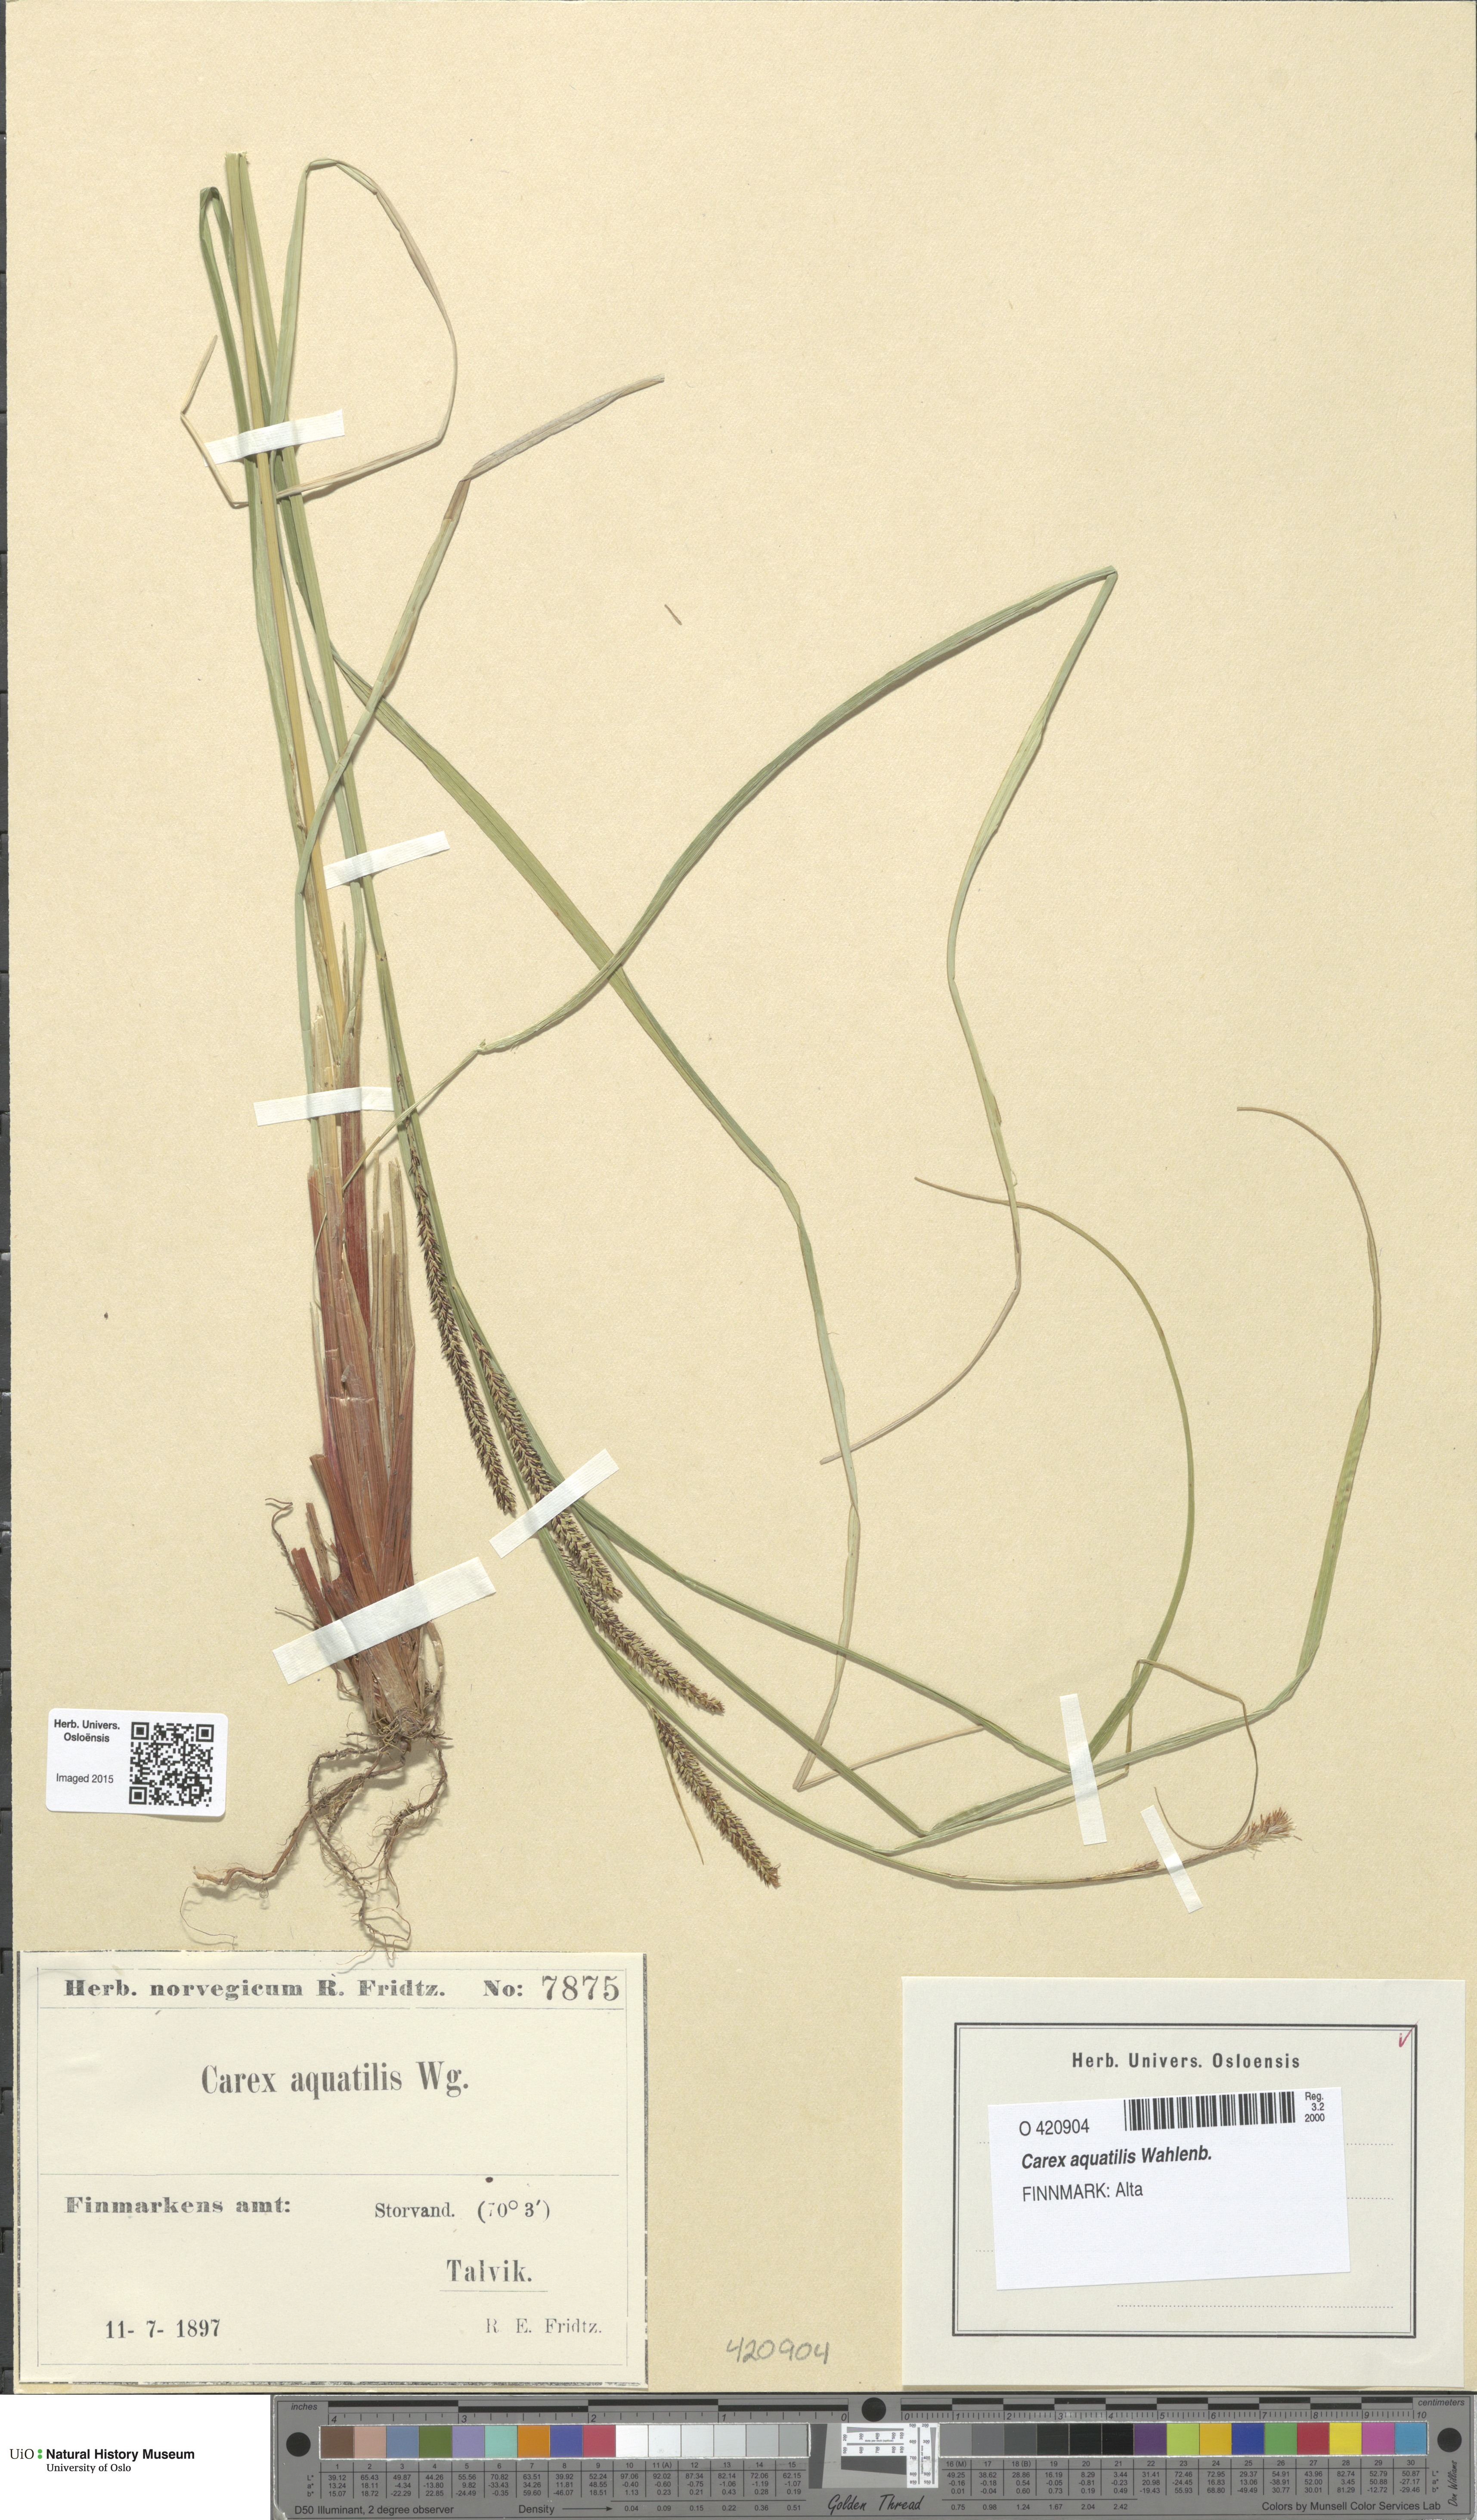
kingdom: Plantae
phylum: Tracheophyta
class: Liliopsida
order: Poales
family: Cyperaceae
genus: Carex
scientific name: Carex aquatilis
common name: Water sedge
